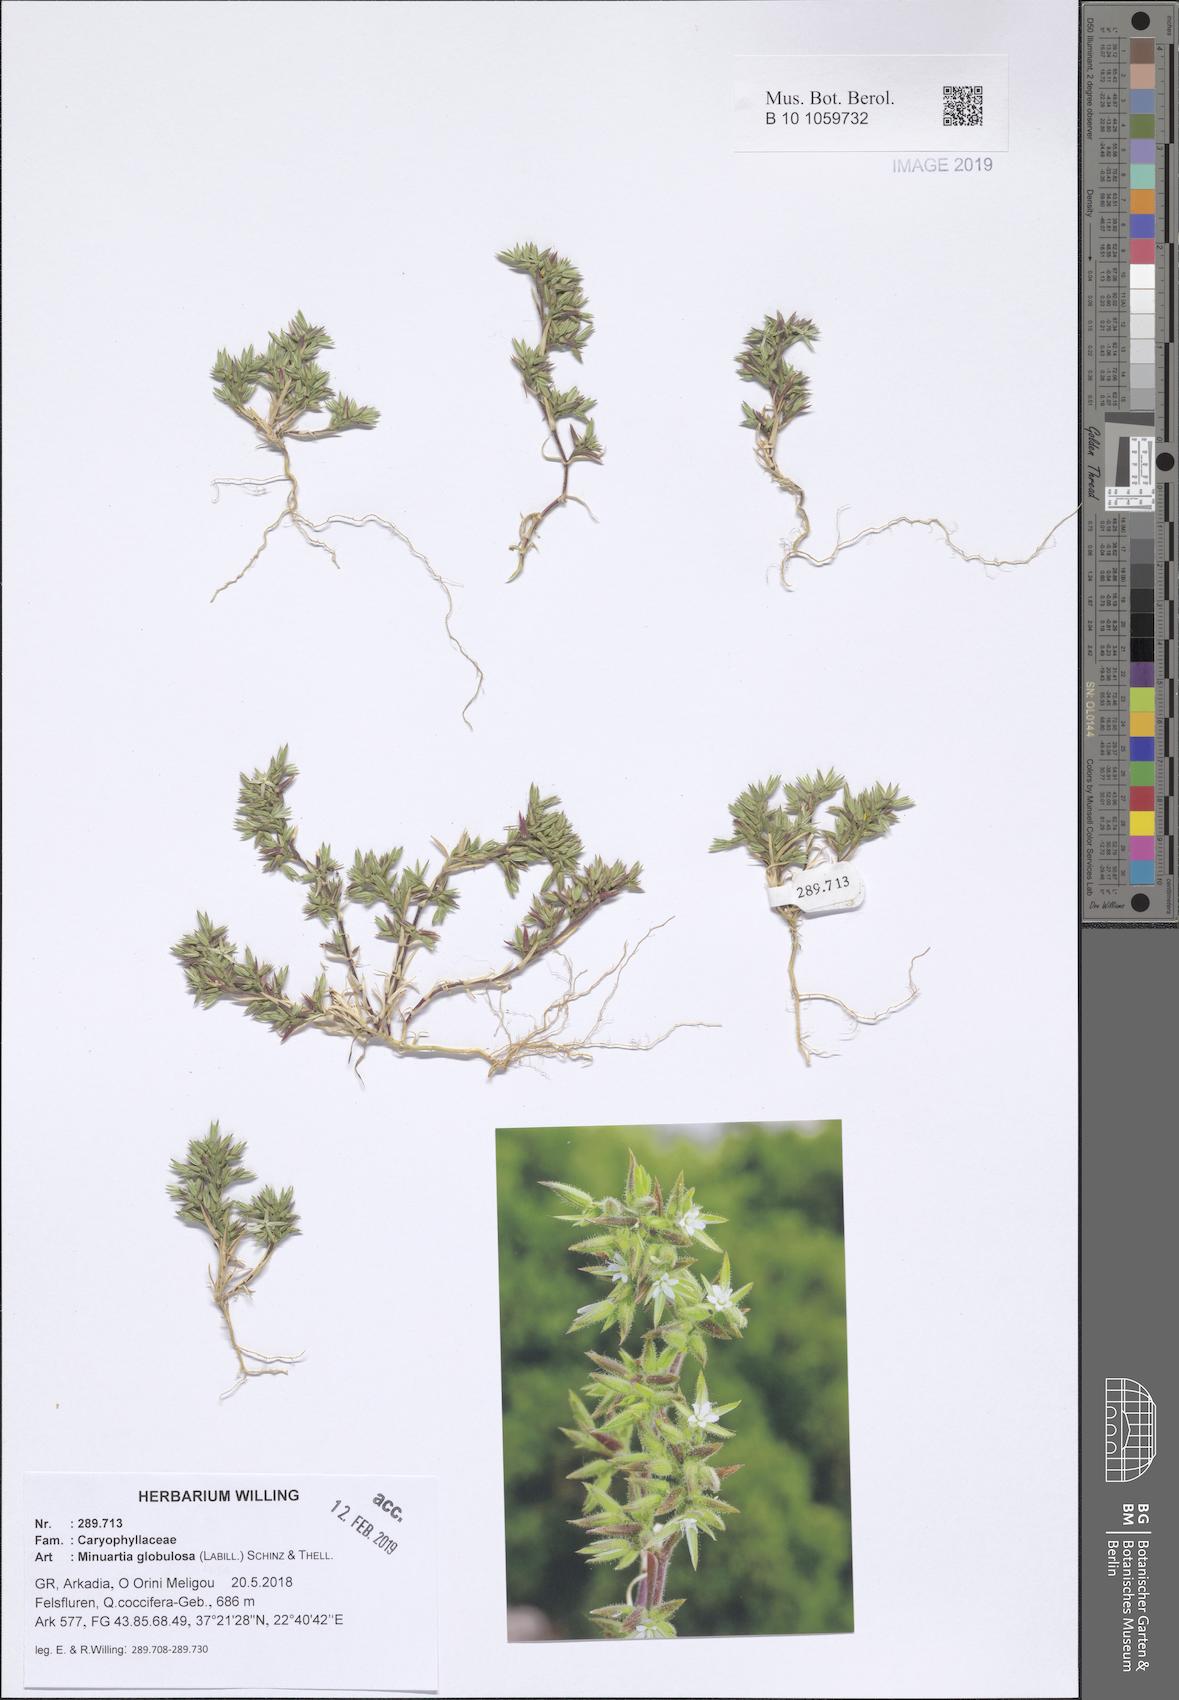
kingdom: Plantae
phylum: Tracheophyta
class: Magnoliopsida
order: Caryophyllales
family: Caryophyllaceae
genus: Minuartia
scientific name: Minuartia globulosa
